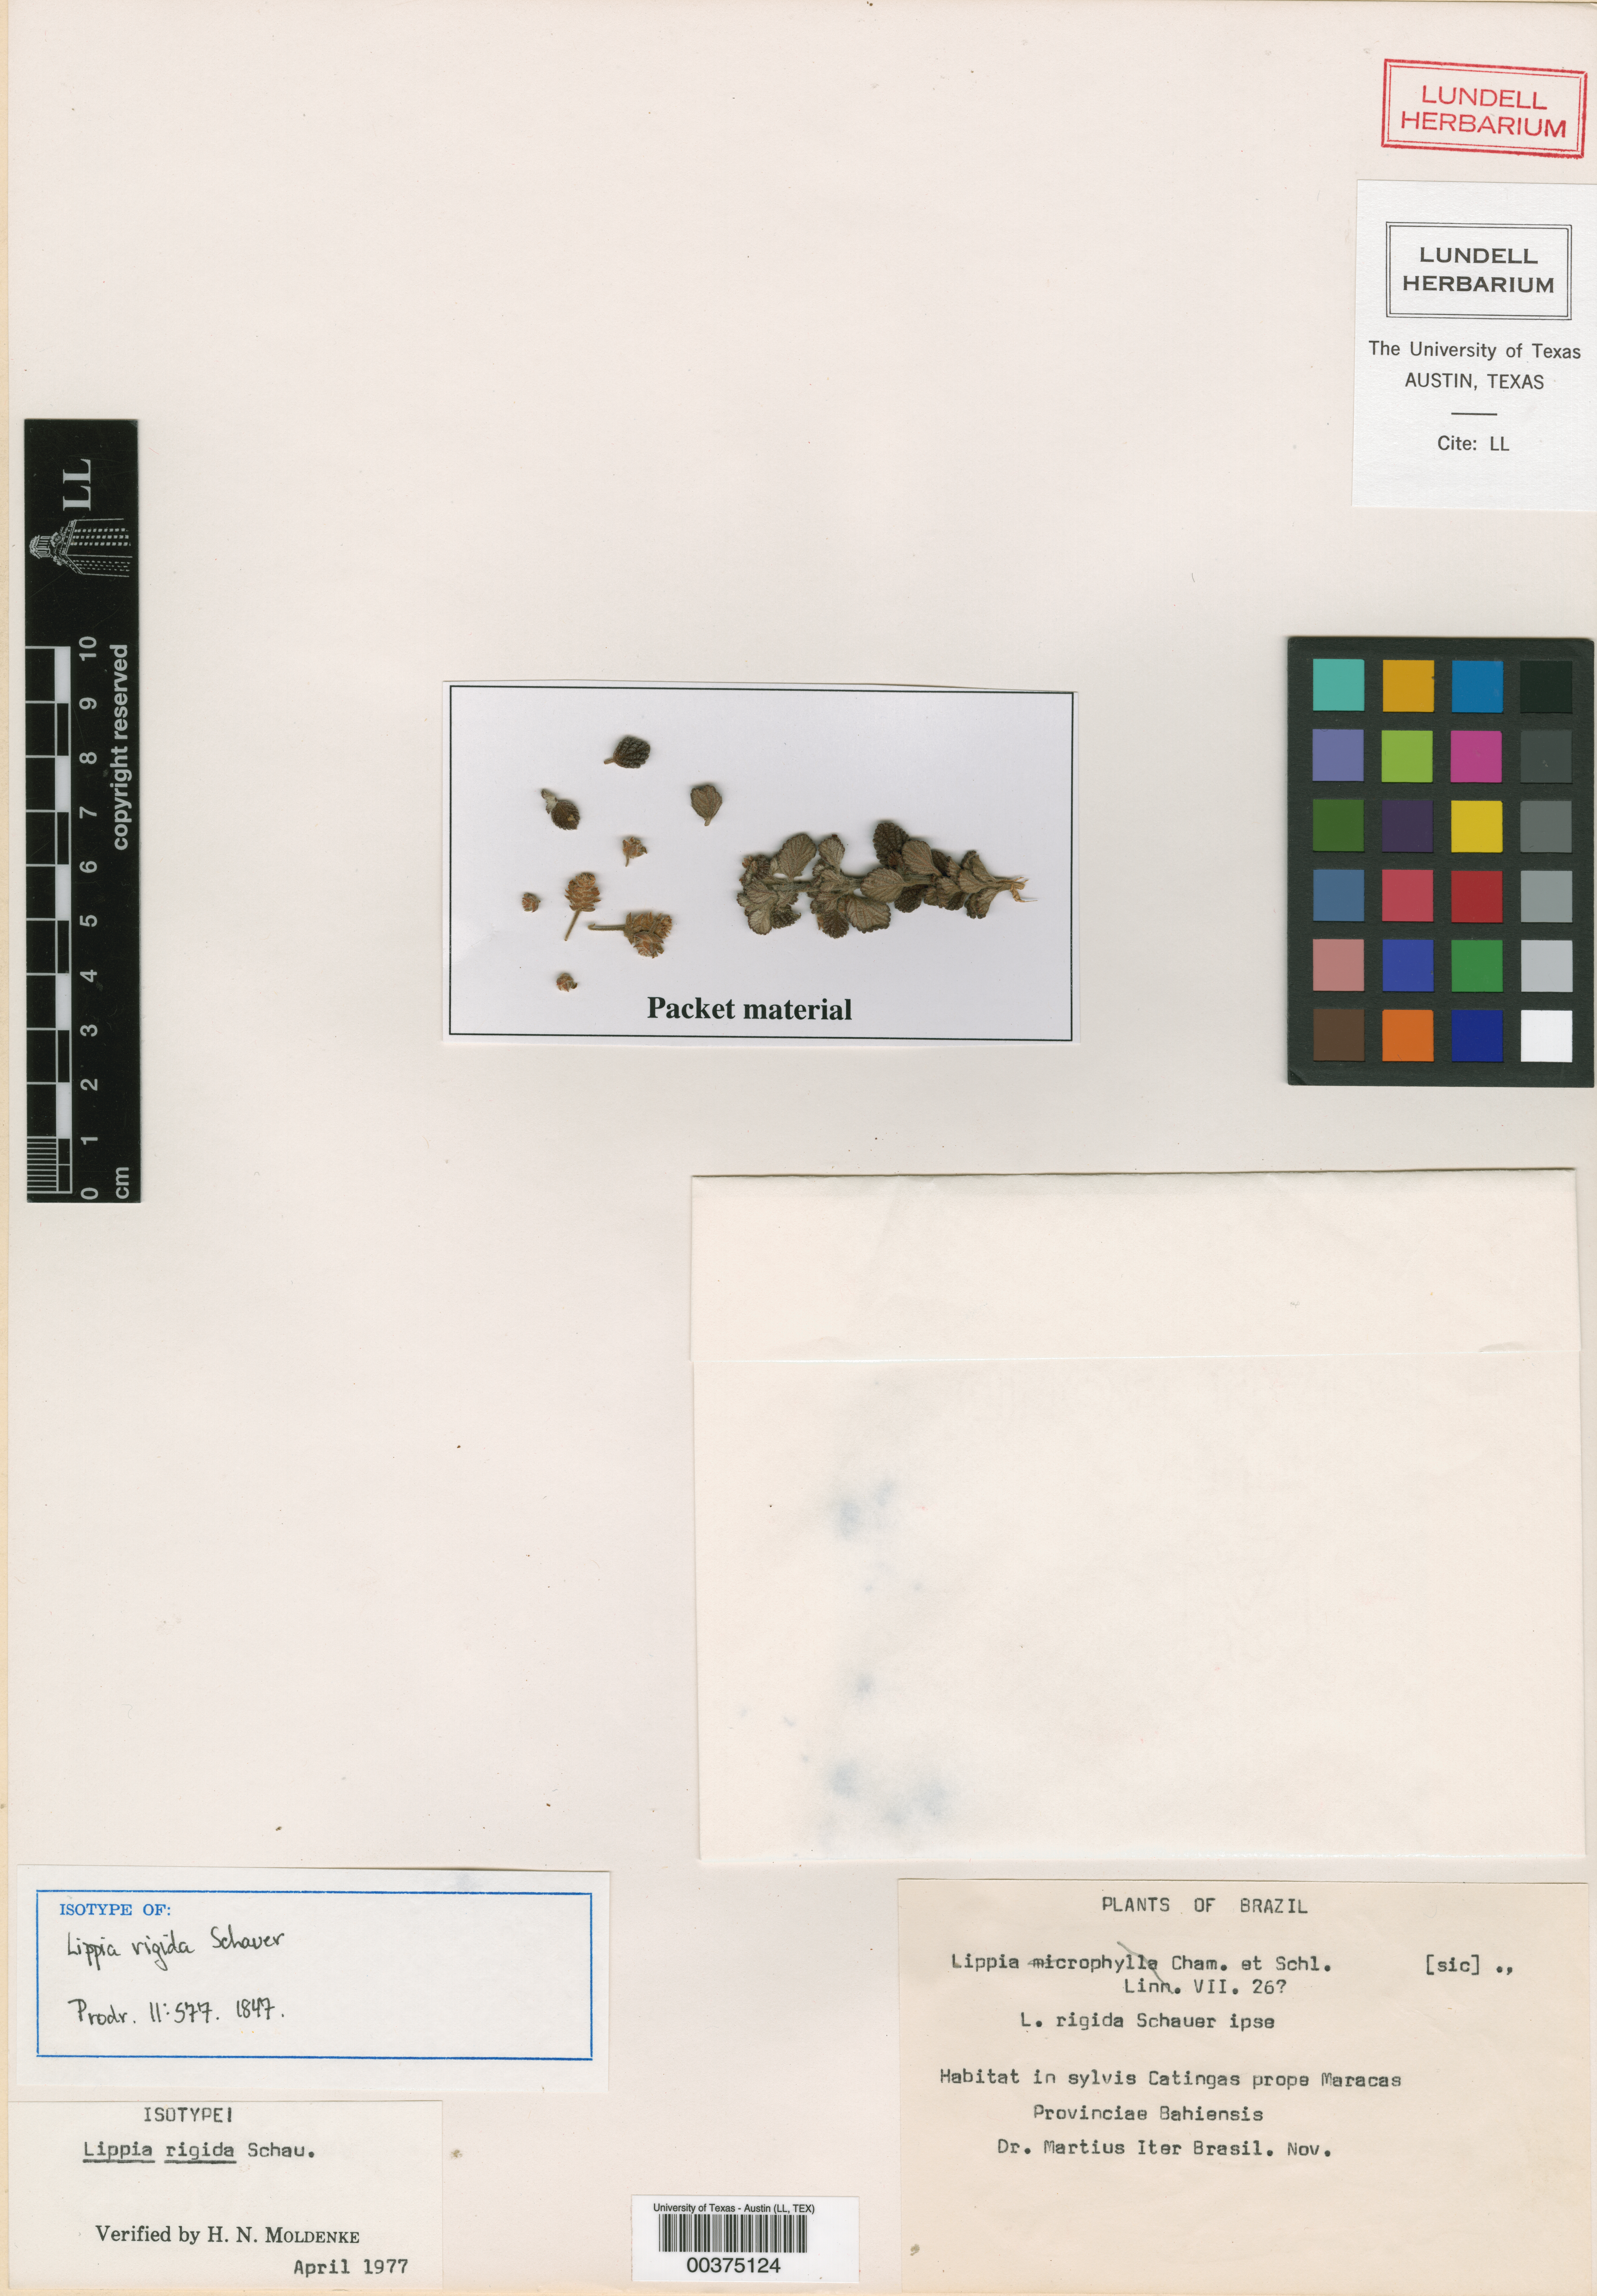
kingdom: Plantae
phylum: Tracheophyta
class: Magnoliopsida
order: Lamiales
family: Verbenaceae
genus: Lippia
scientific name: Lippia origanoides
